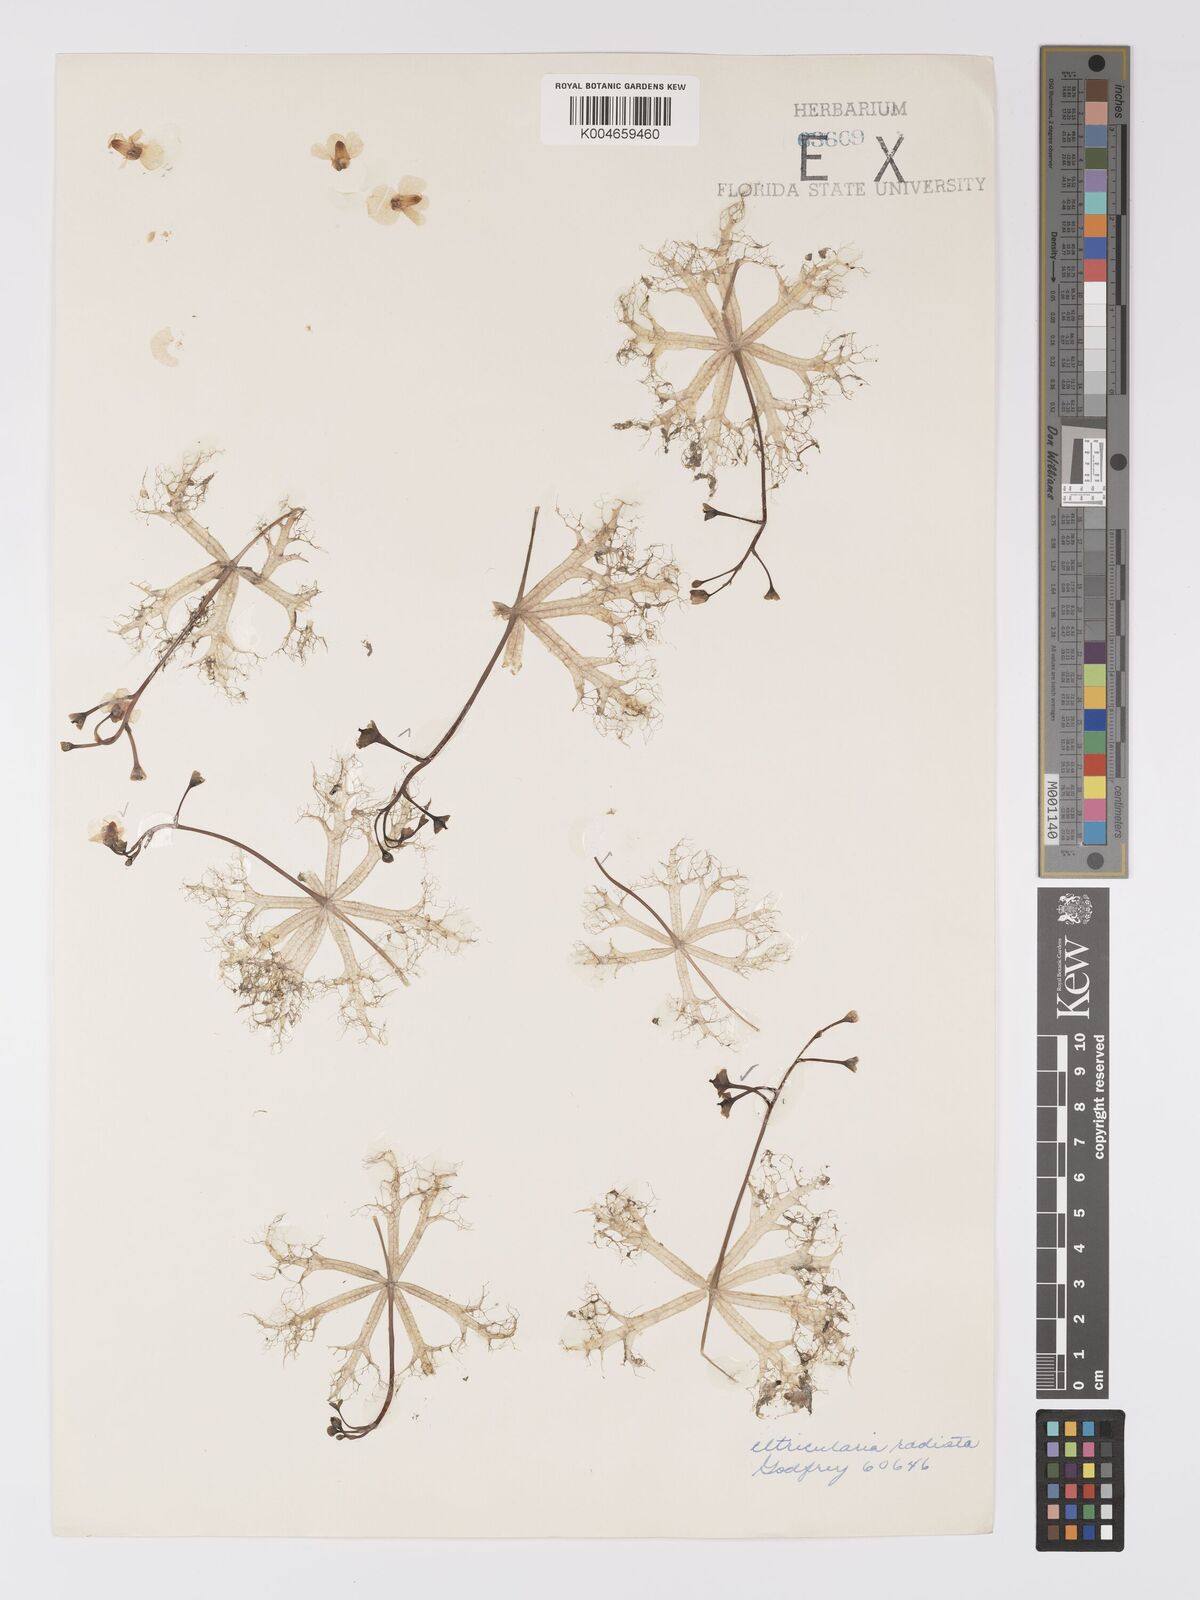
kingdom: Plantae
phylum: Tracheophyta
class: Magnoliopsida
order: Lamiales
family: Lentibulariaceae
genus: Utricularia
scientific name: Utricularia radiata
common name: Floating bladderwort
